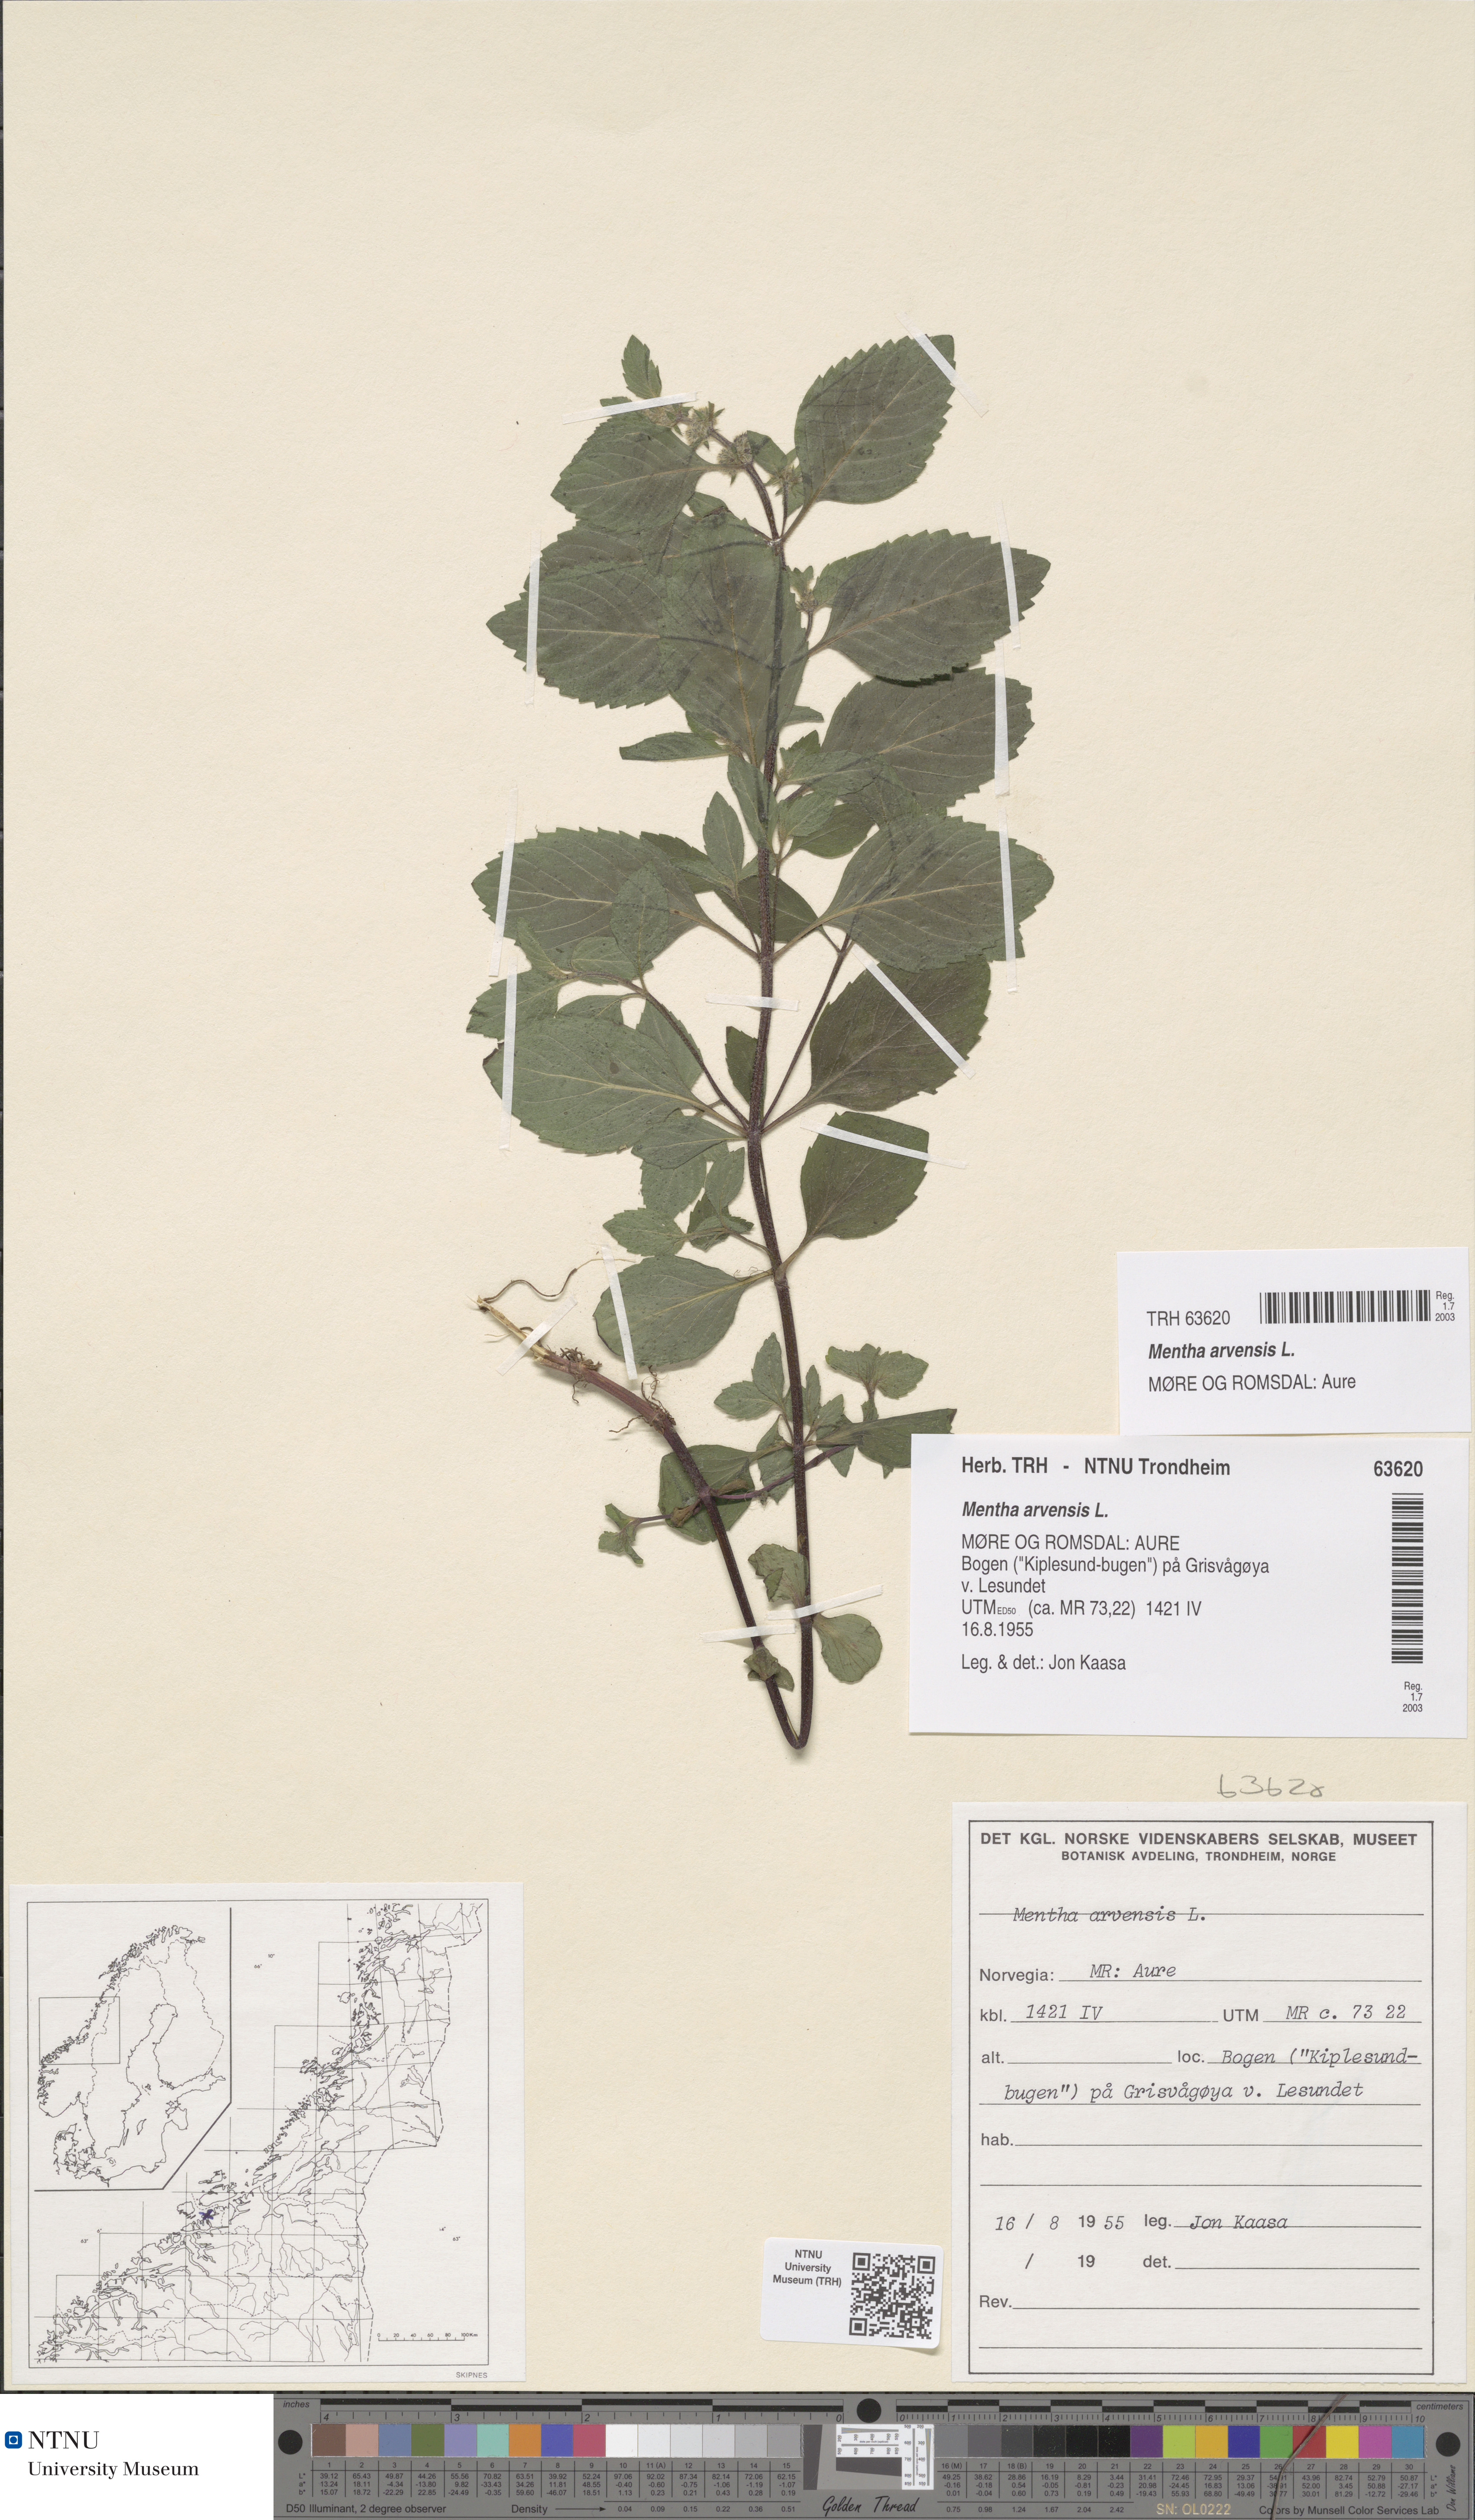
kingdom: Plantae
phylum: Tracheophyta
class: Magnoliopsida
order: Lamiales
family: Lamiaceae
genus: Mentha
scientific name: Mentha arvensis
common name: Corn mint
